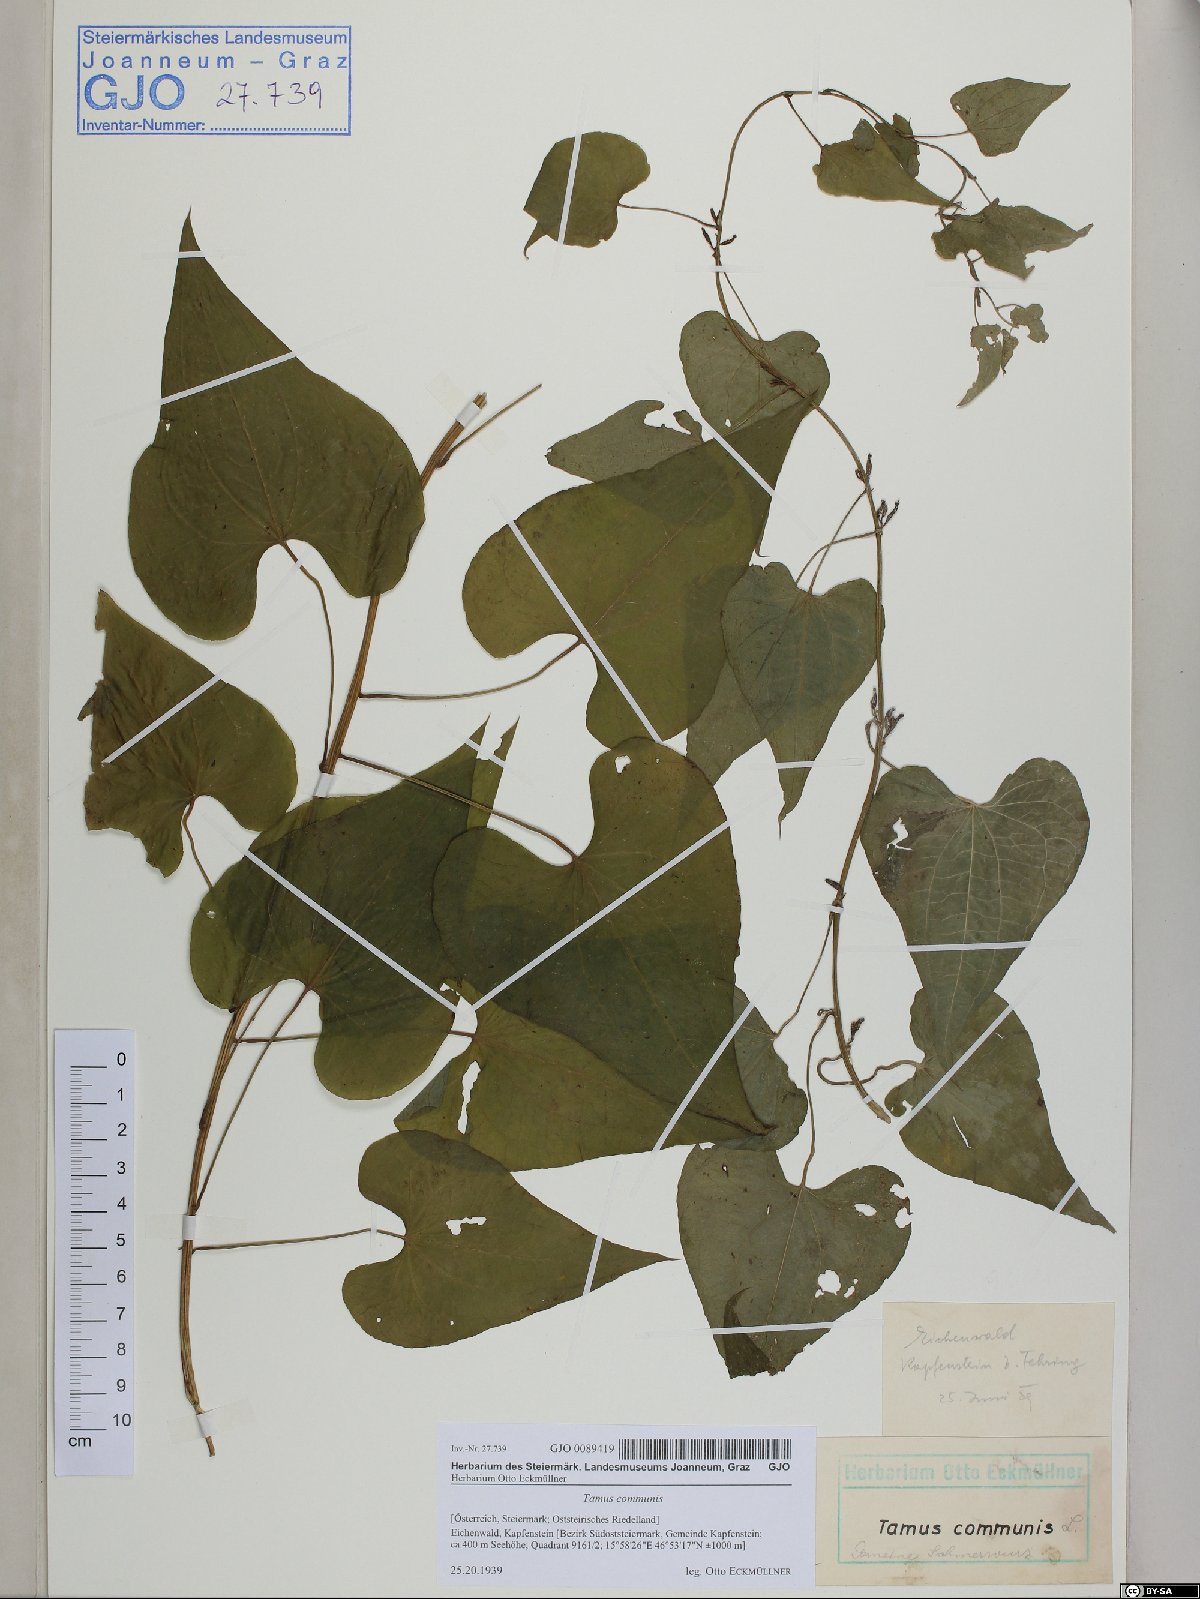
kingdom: Plantae
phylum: Tracheophyta
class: Liliopsida
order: Dioscoreales
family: Dioscoreaceae
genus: Dioscorea
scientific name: Dioscorea communis
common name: Black-bindweed
